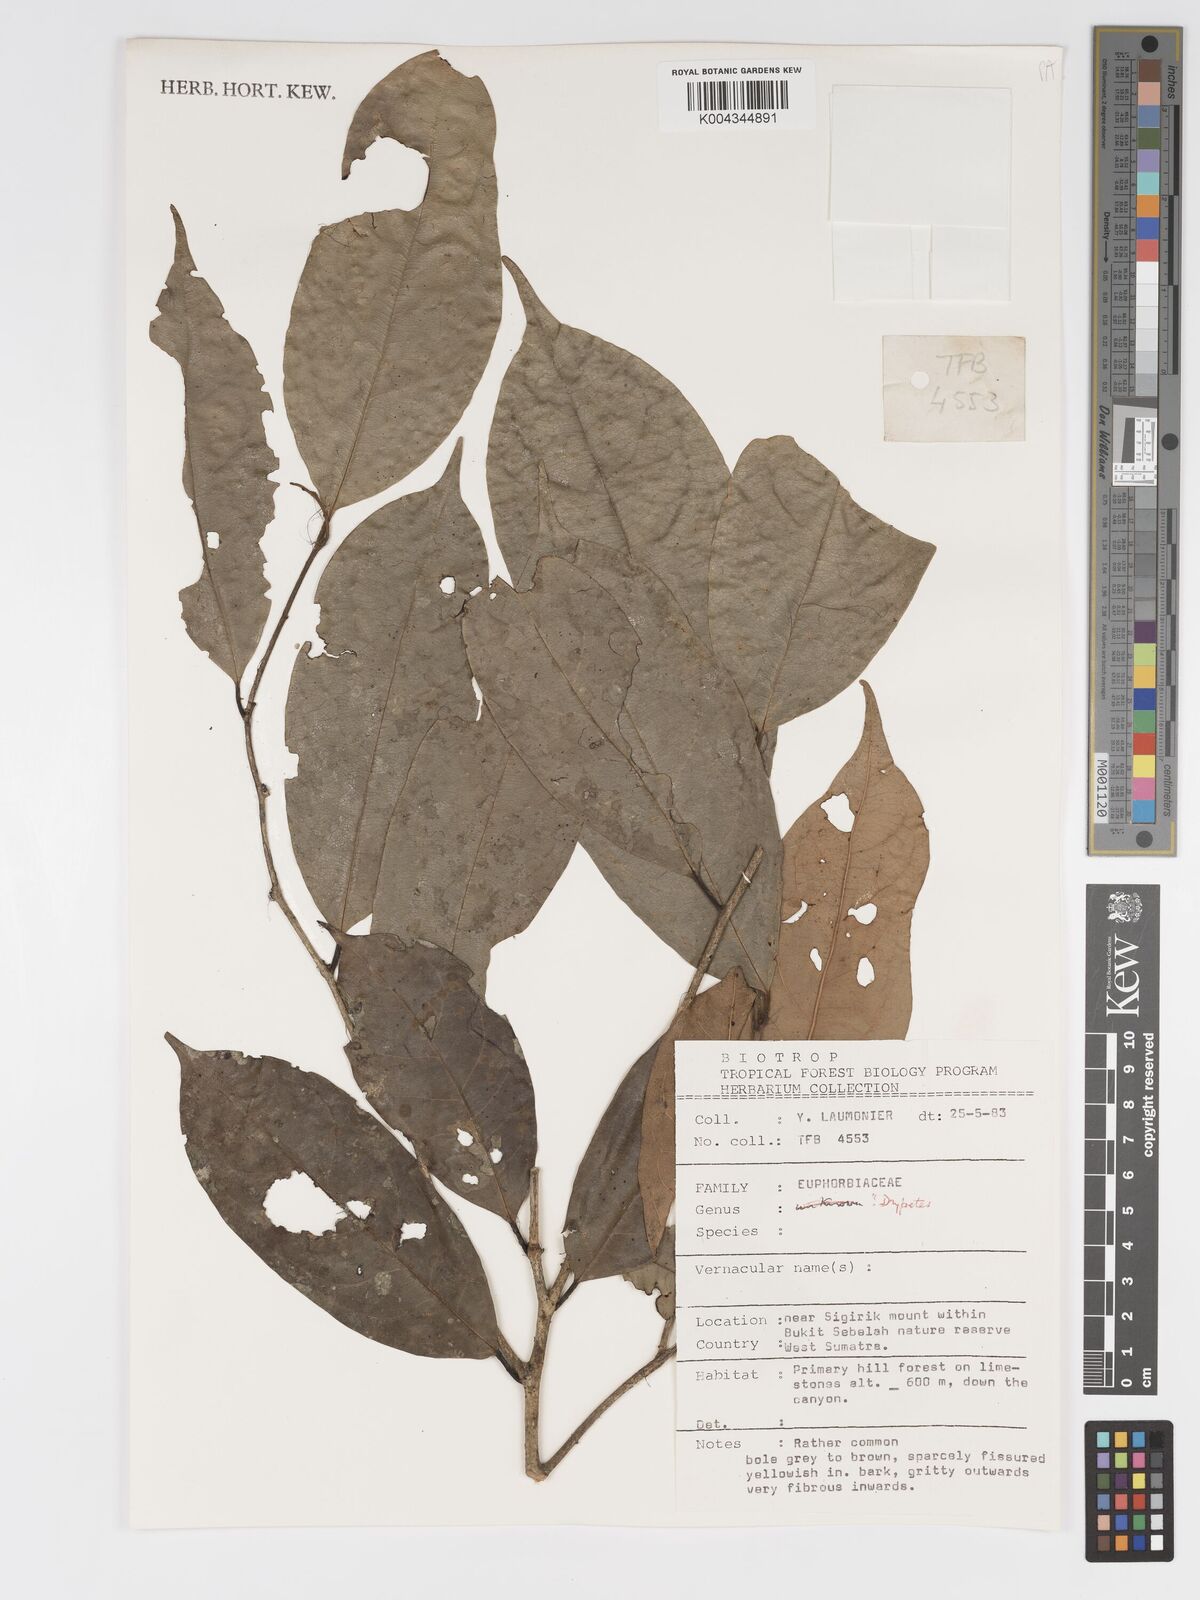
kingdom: Plantae
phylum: Tracheophyta
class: Magnoliopsida
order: Malpighiales
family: Putranjivaceae
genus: Drypetes
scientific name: Drypetes
